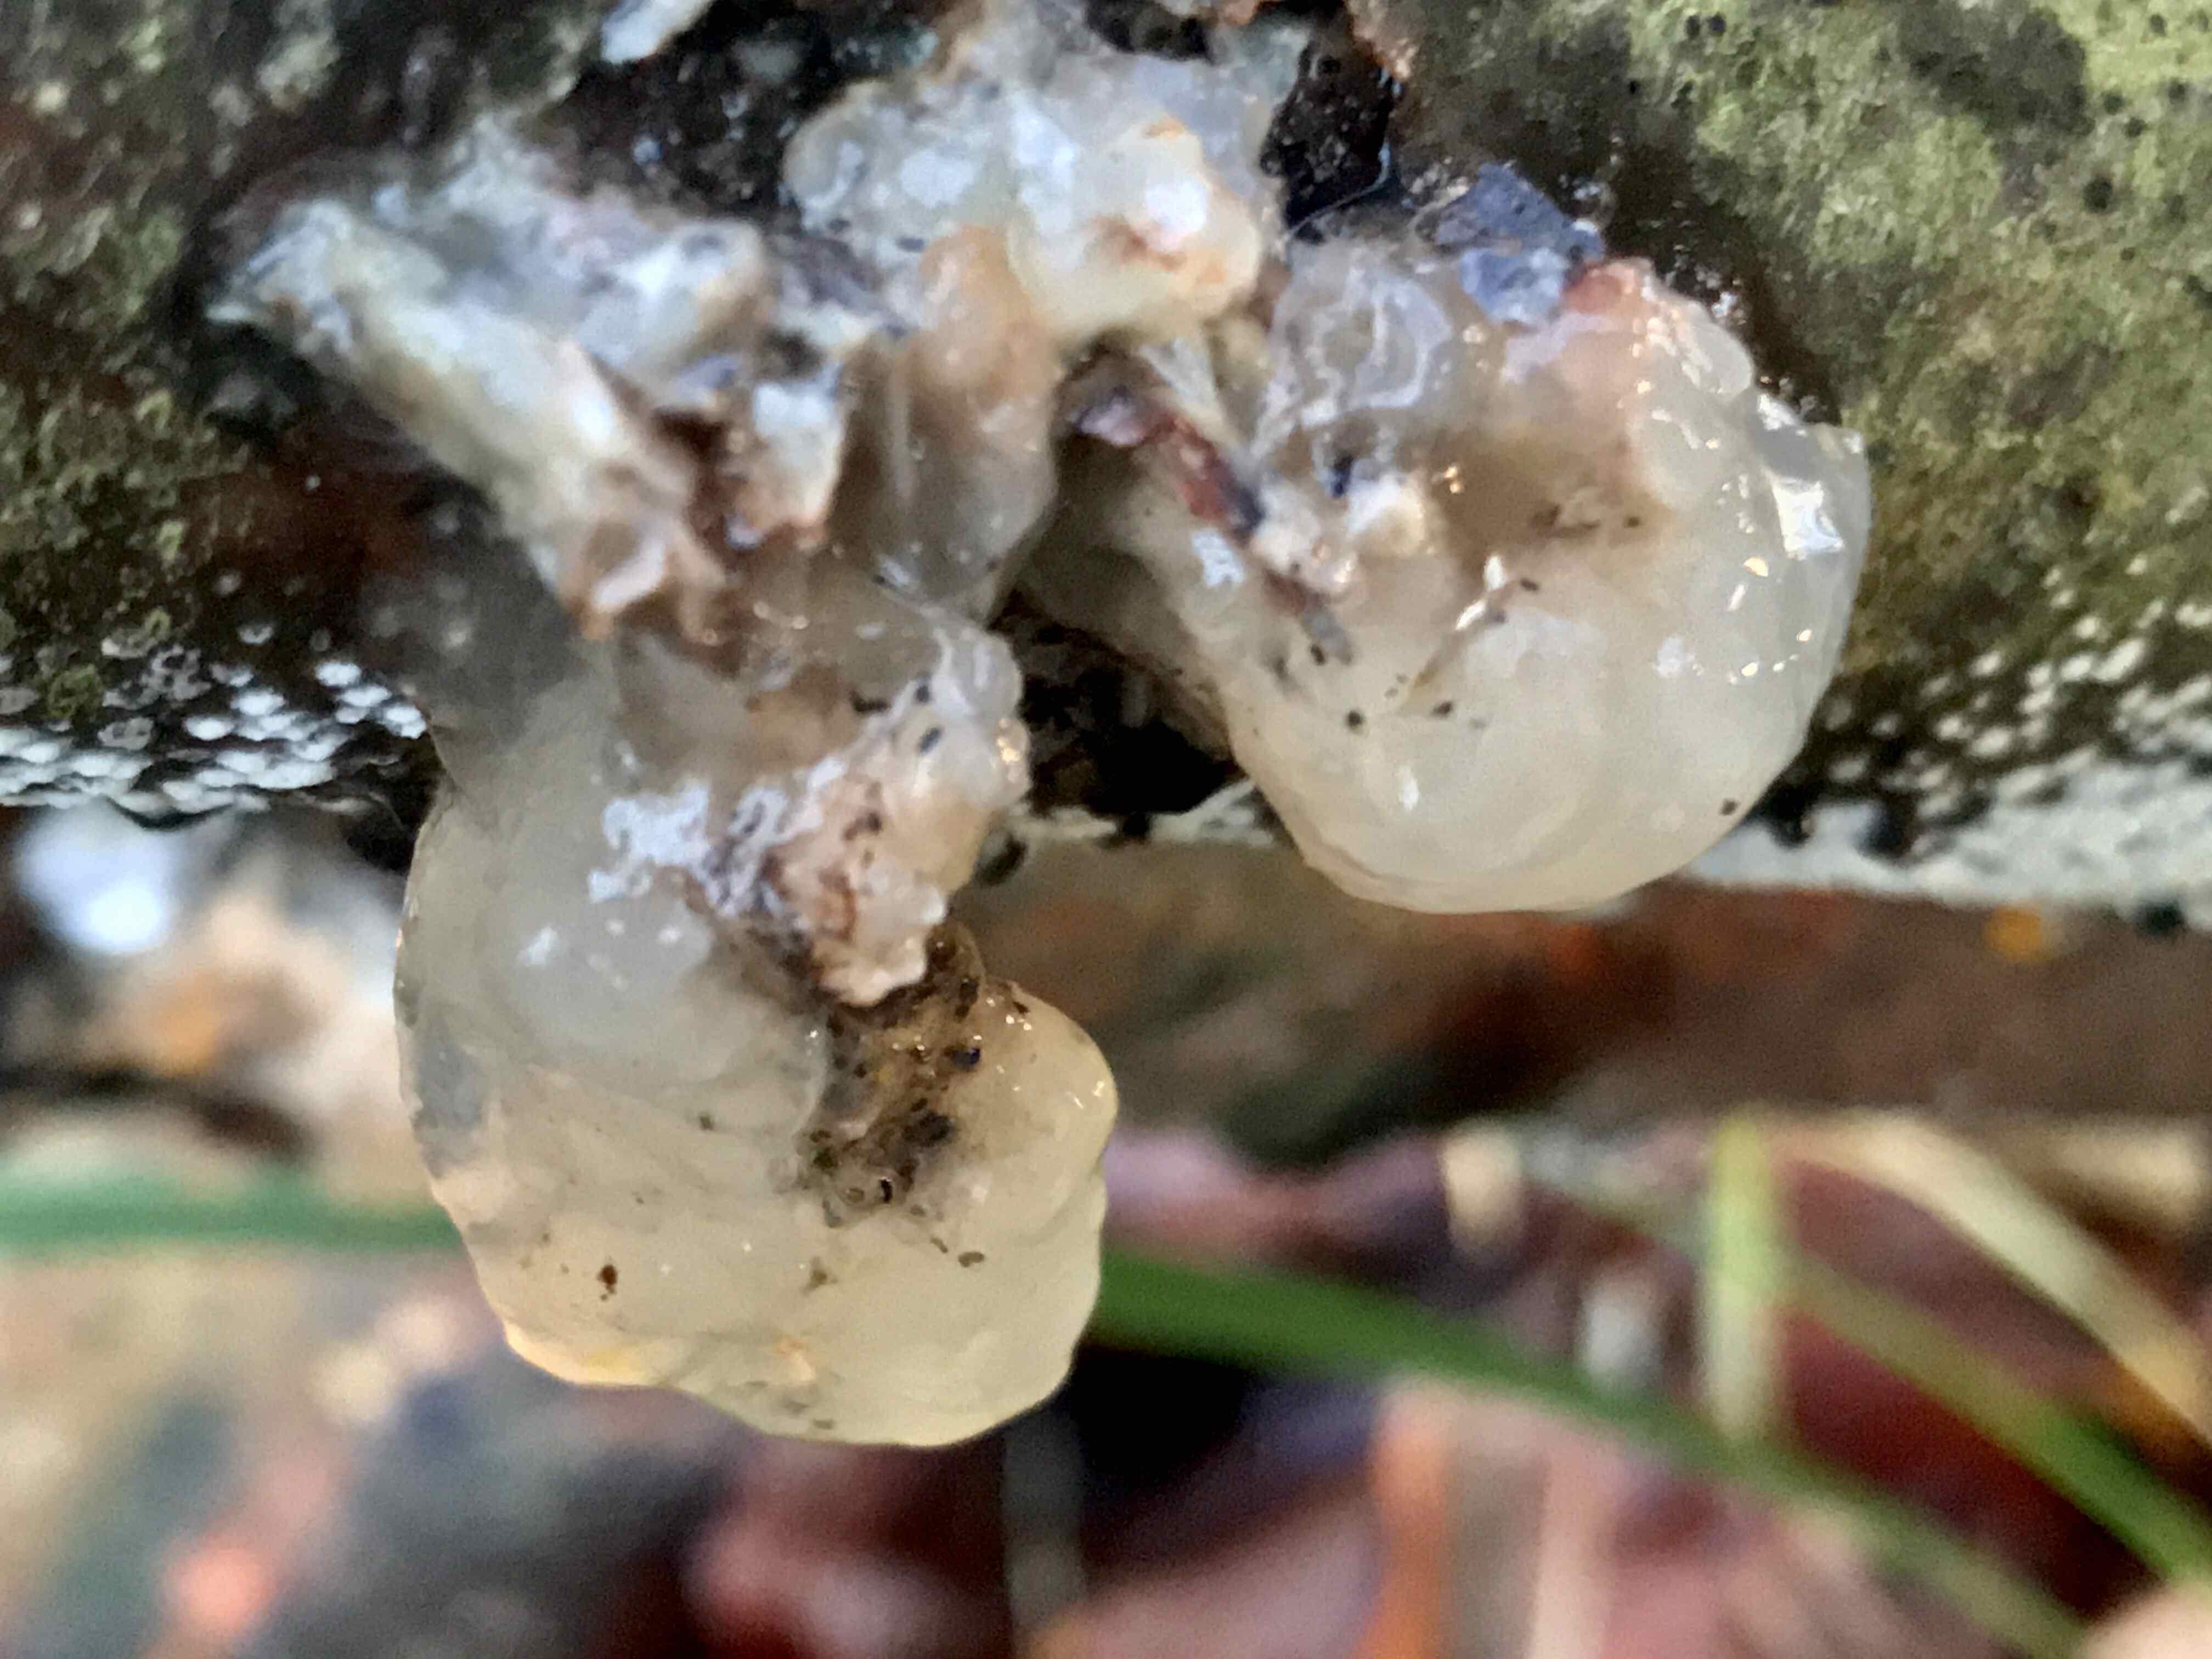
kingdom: Fungi
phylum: Basidiomycota
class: Agaricomycetes
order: Auriculariales
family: Hyaloriaceae
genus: Myxarium
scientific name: Myxarium nucleatum
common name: klar bævretop
